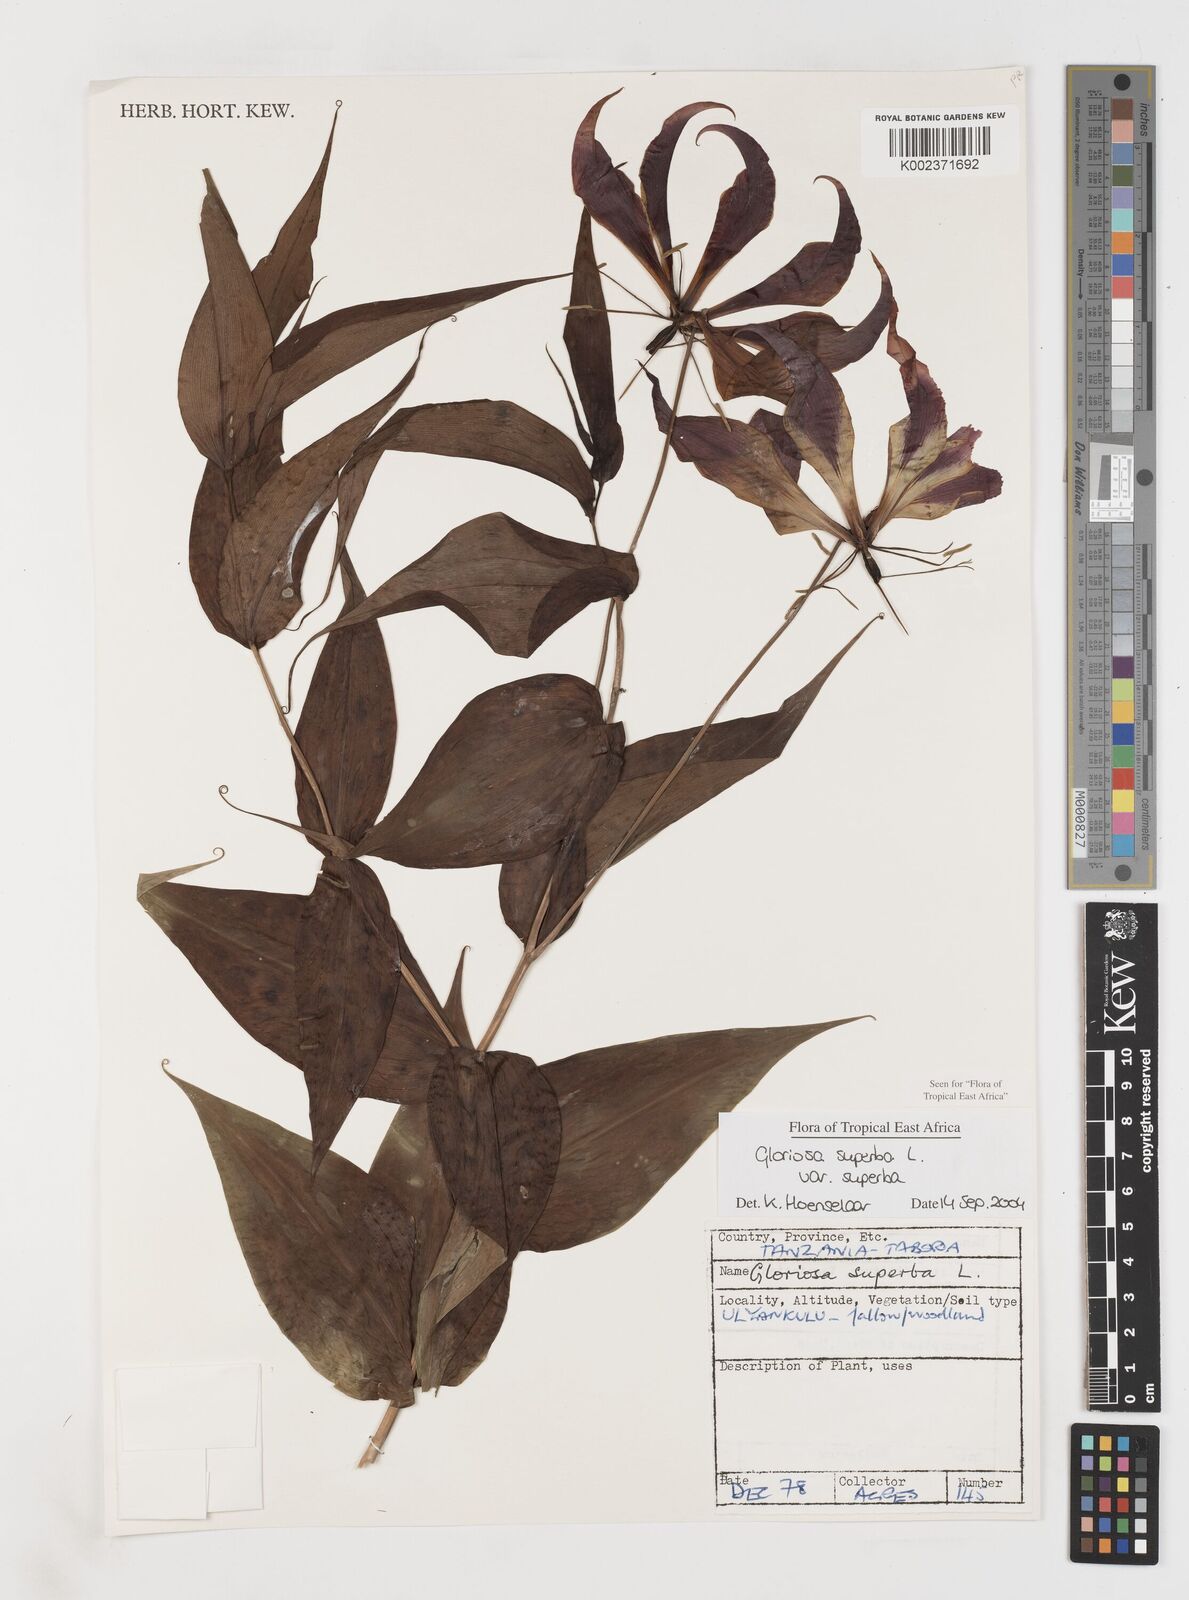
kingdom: Plantae
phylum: Tracheophyta
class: Liliopsida
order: Liliales
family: Colchicaceae
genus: Gloriosa
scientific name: Gloriosa simplex
